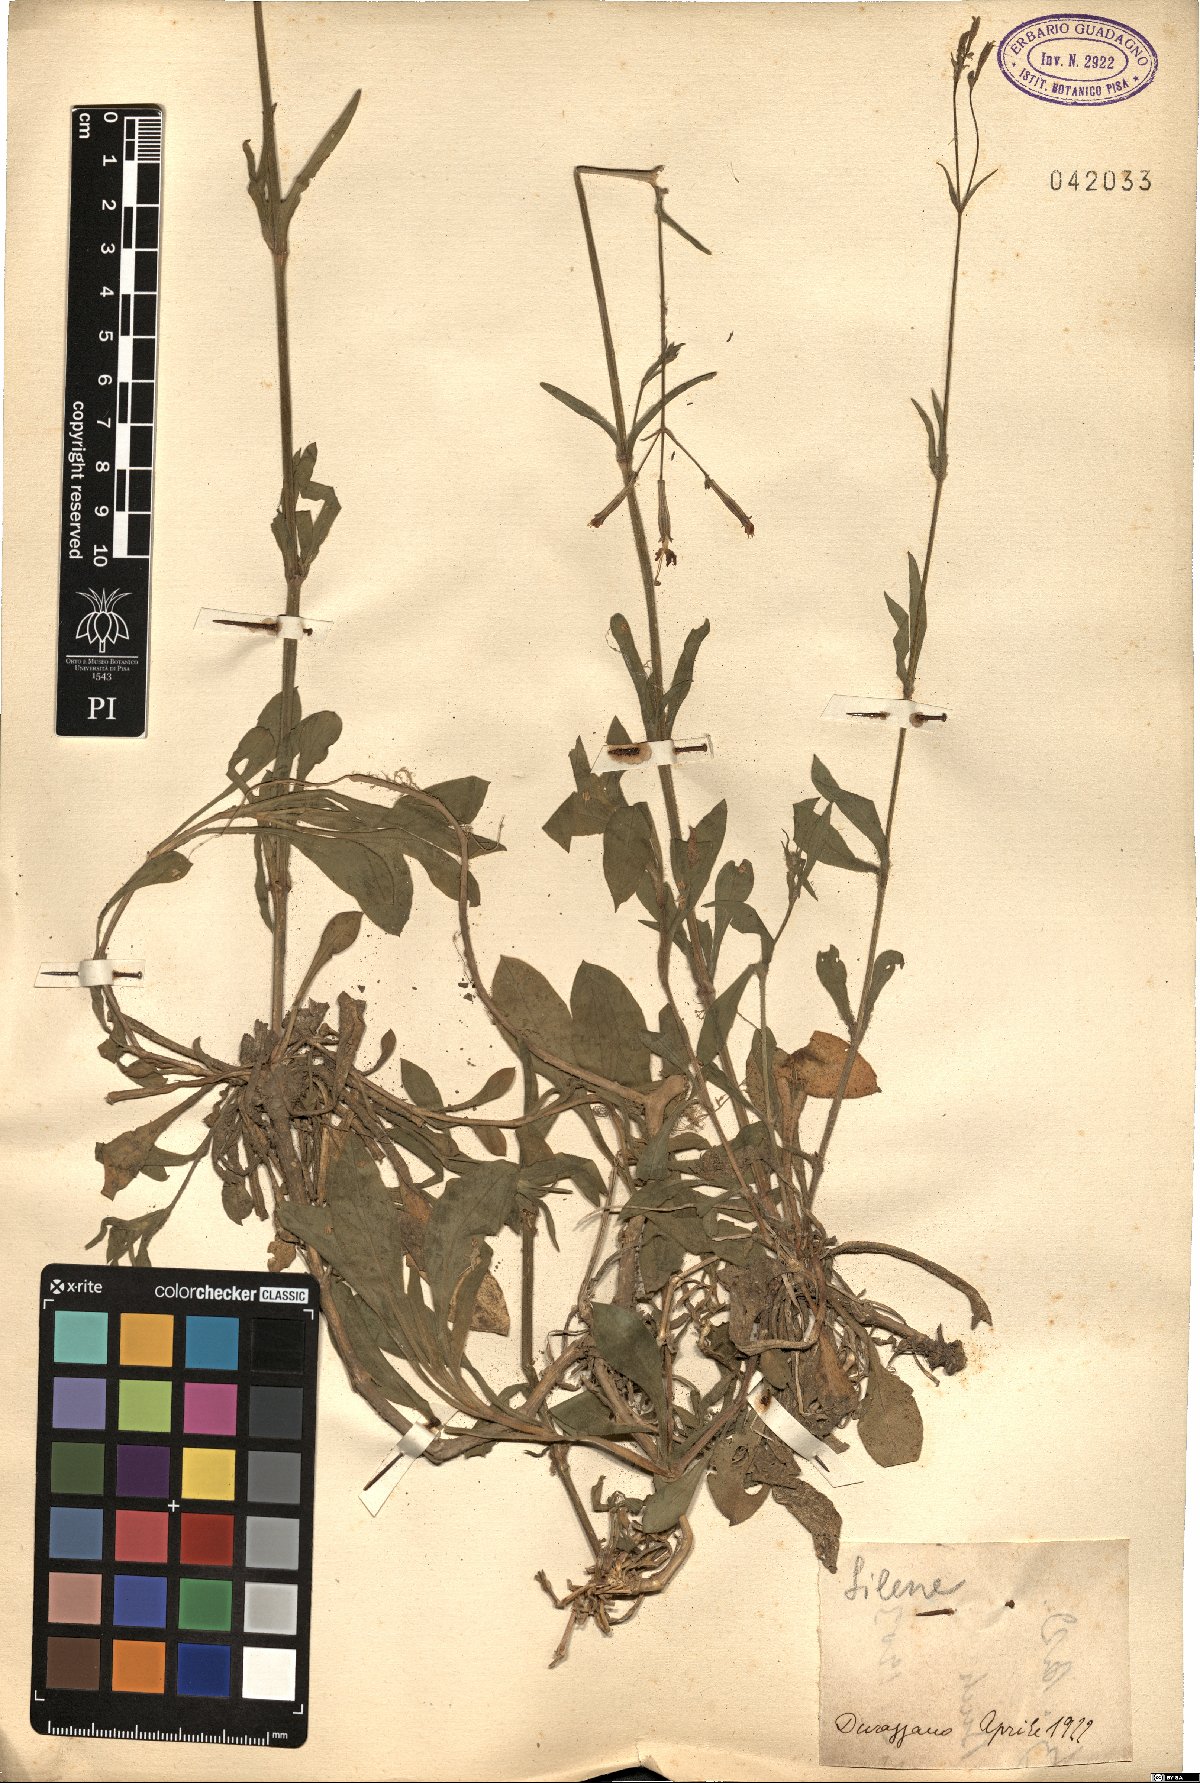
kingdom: Plantae
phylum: Tracheophyta
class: Magnoliopsida
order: Caryophyllales
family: Caryophyllaceae
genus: Silene
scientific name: Silene
